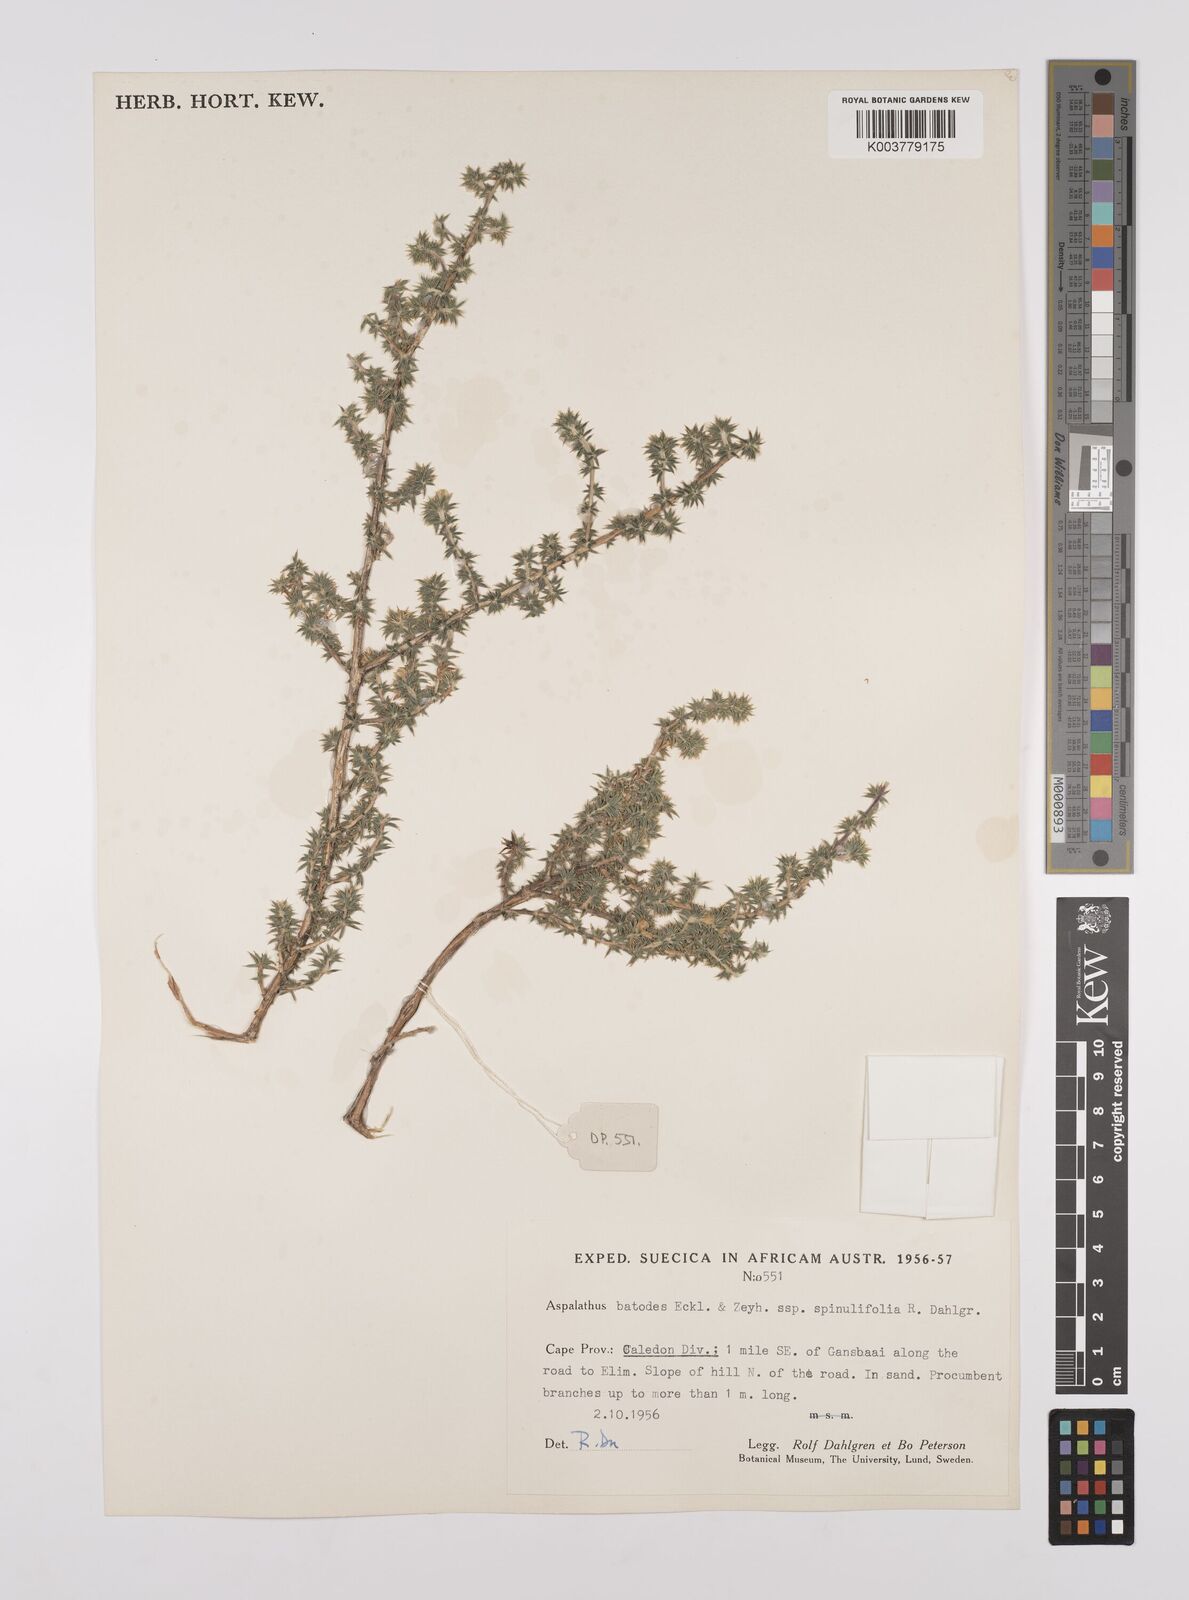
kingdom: Plantae
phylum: Tracheophyta
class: Magnoliopsida
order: Fabales
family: Fabaceae
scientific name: Fabaceae
